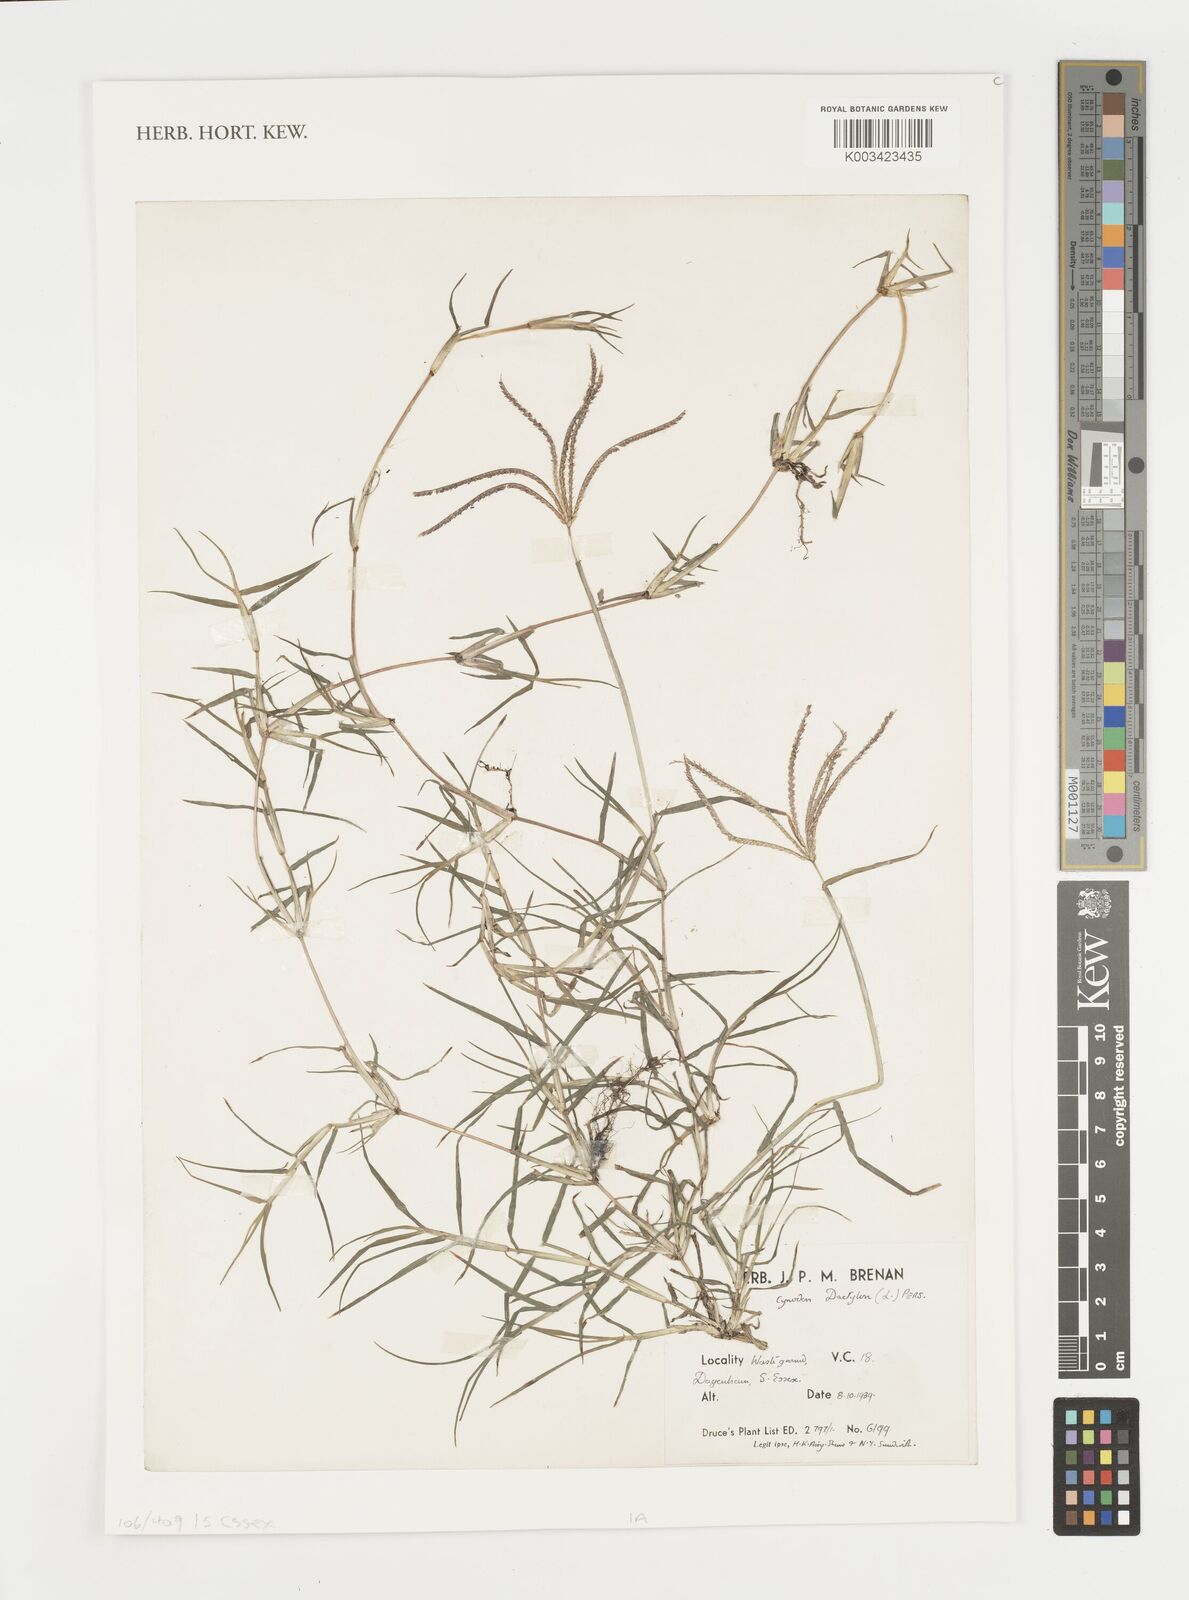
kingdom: Plantae
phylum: Tracheophyta
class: Liliopsida
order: Poales
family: Poaceae
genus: Cynodon
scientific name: Cynodon dactylon
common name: Bermuda grass
